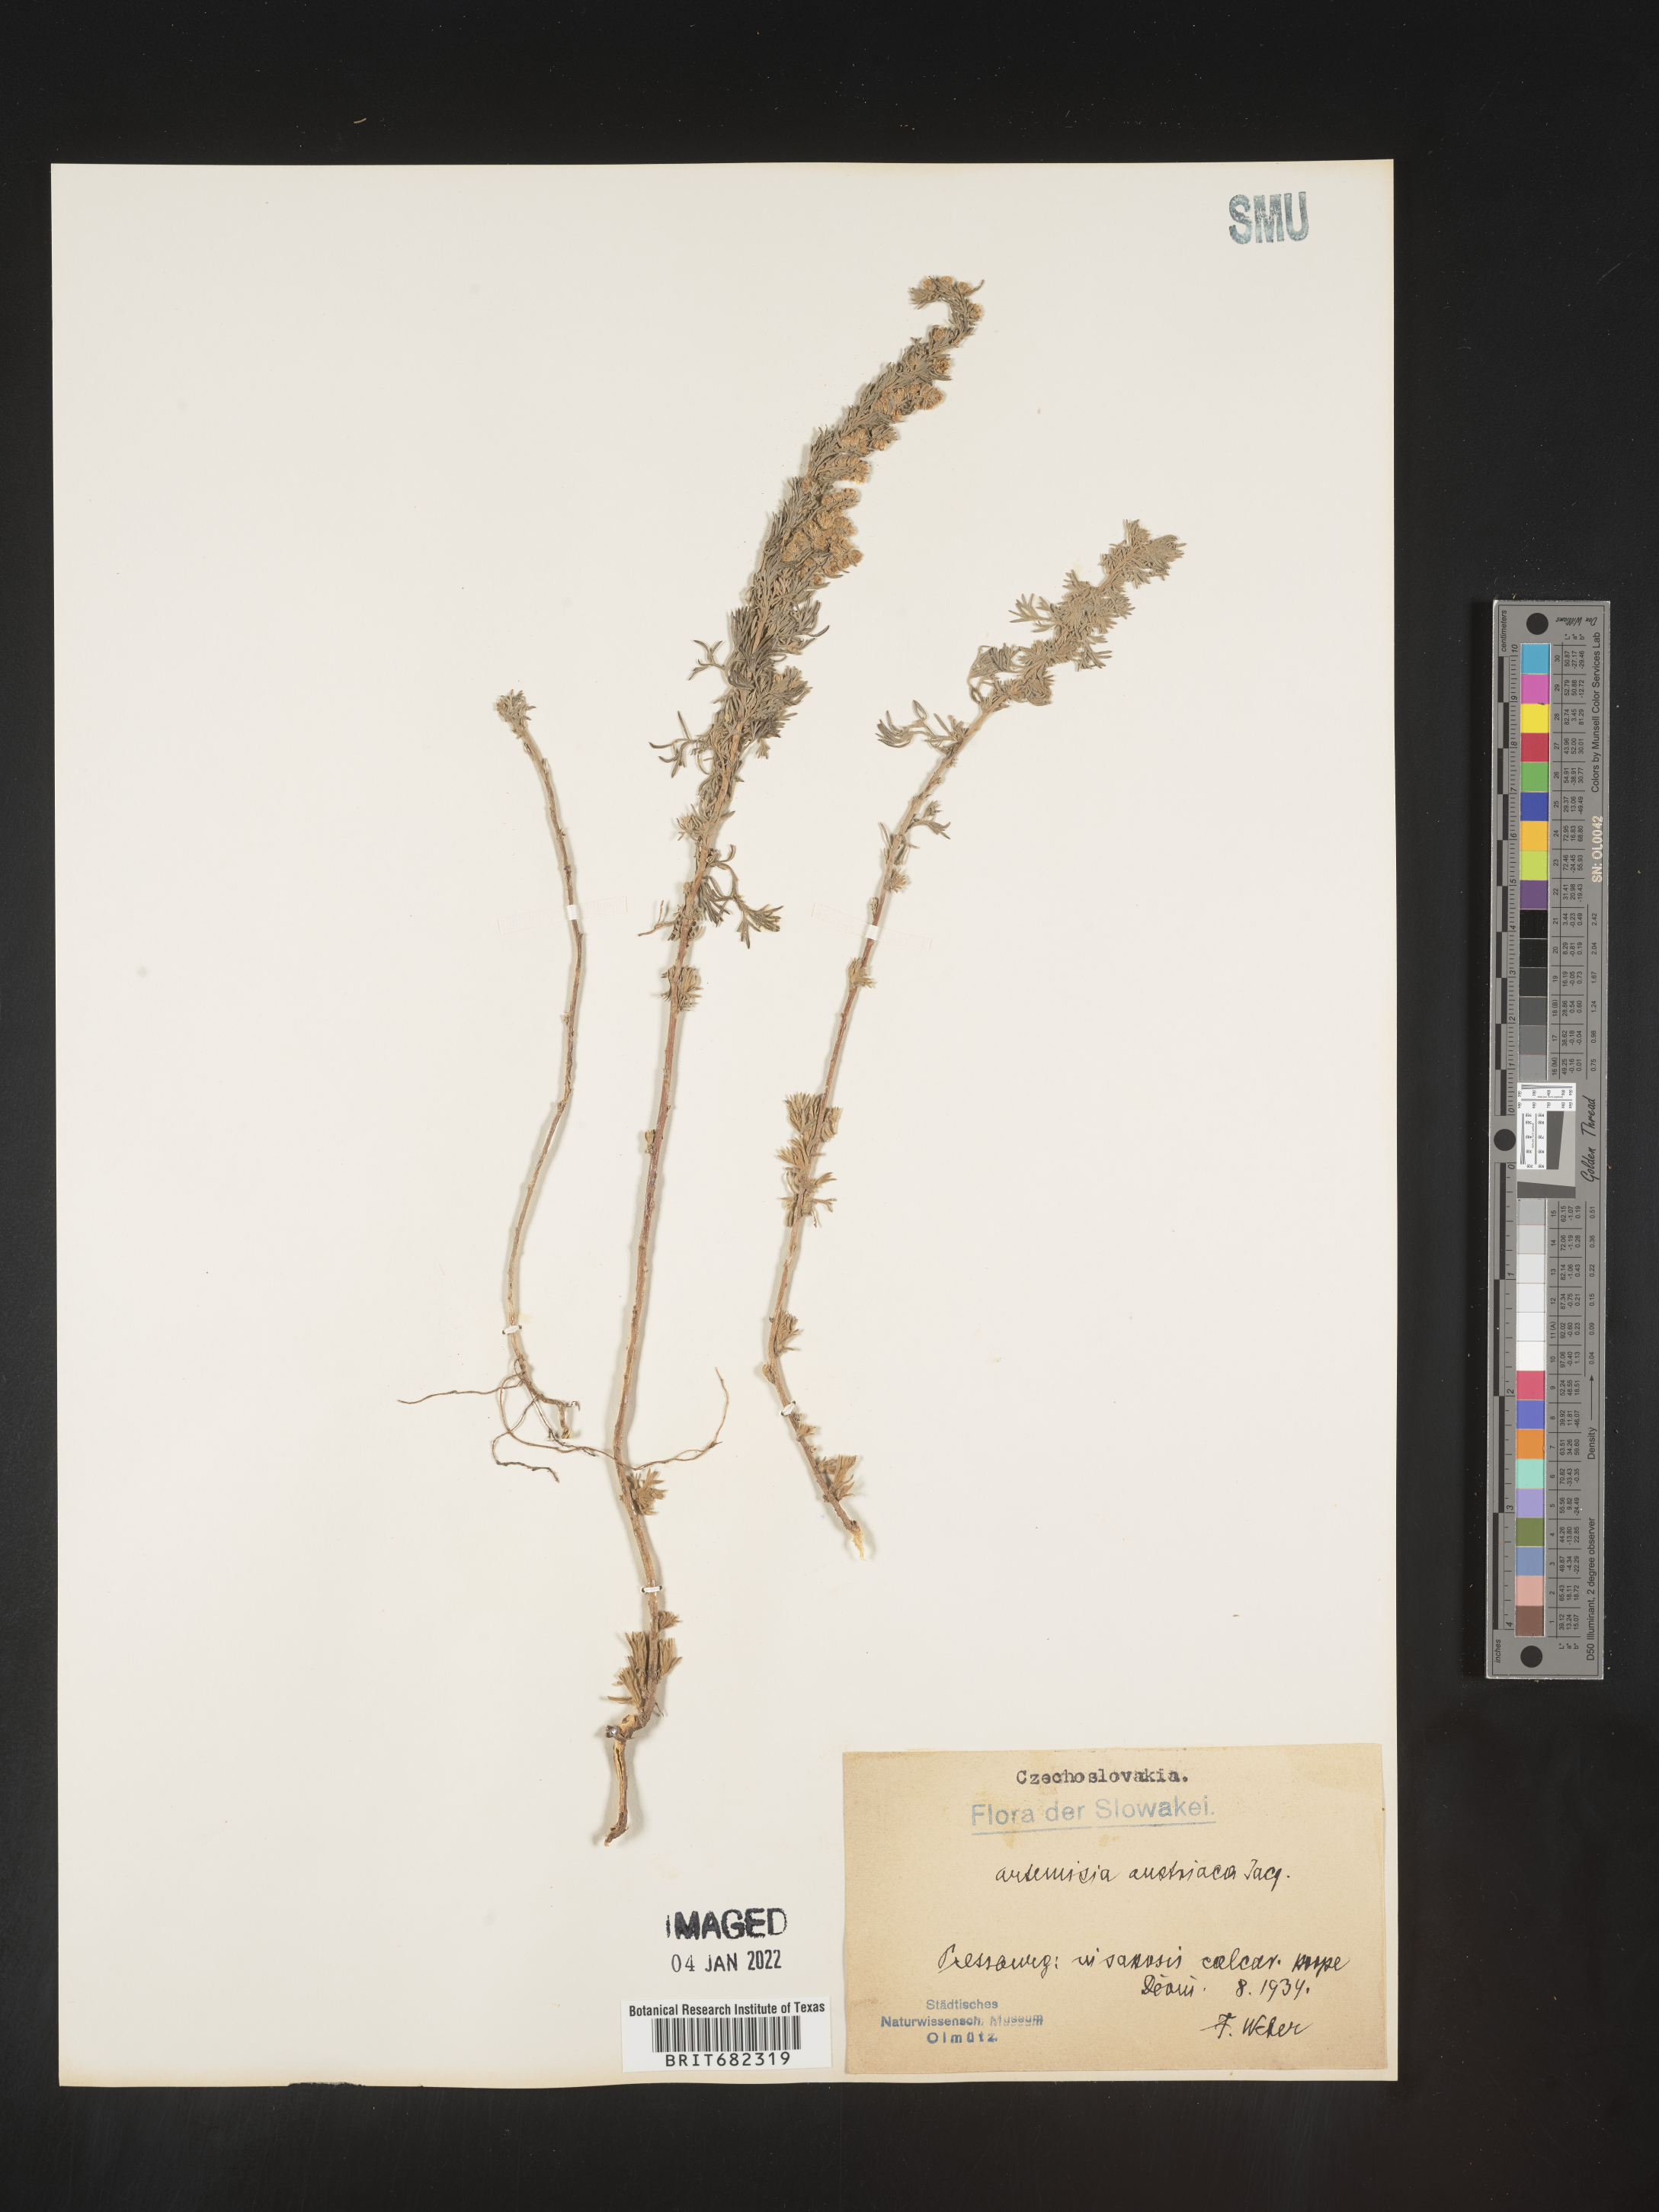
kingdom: Plantae
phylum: Tracheophyta
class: Magnoliopsida
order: Asterales
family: Asteraceae
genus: Artemisia
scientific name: Artemisia
